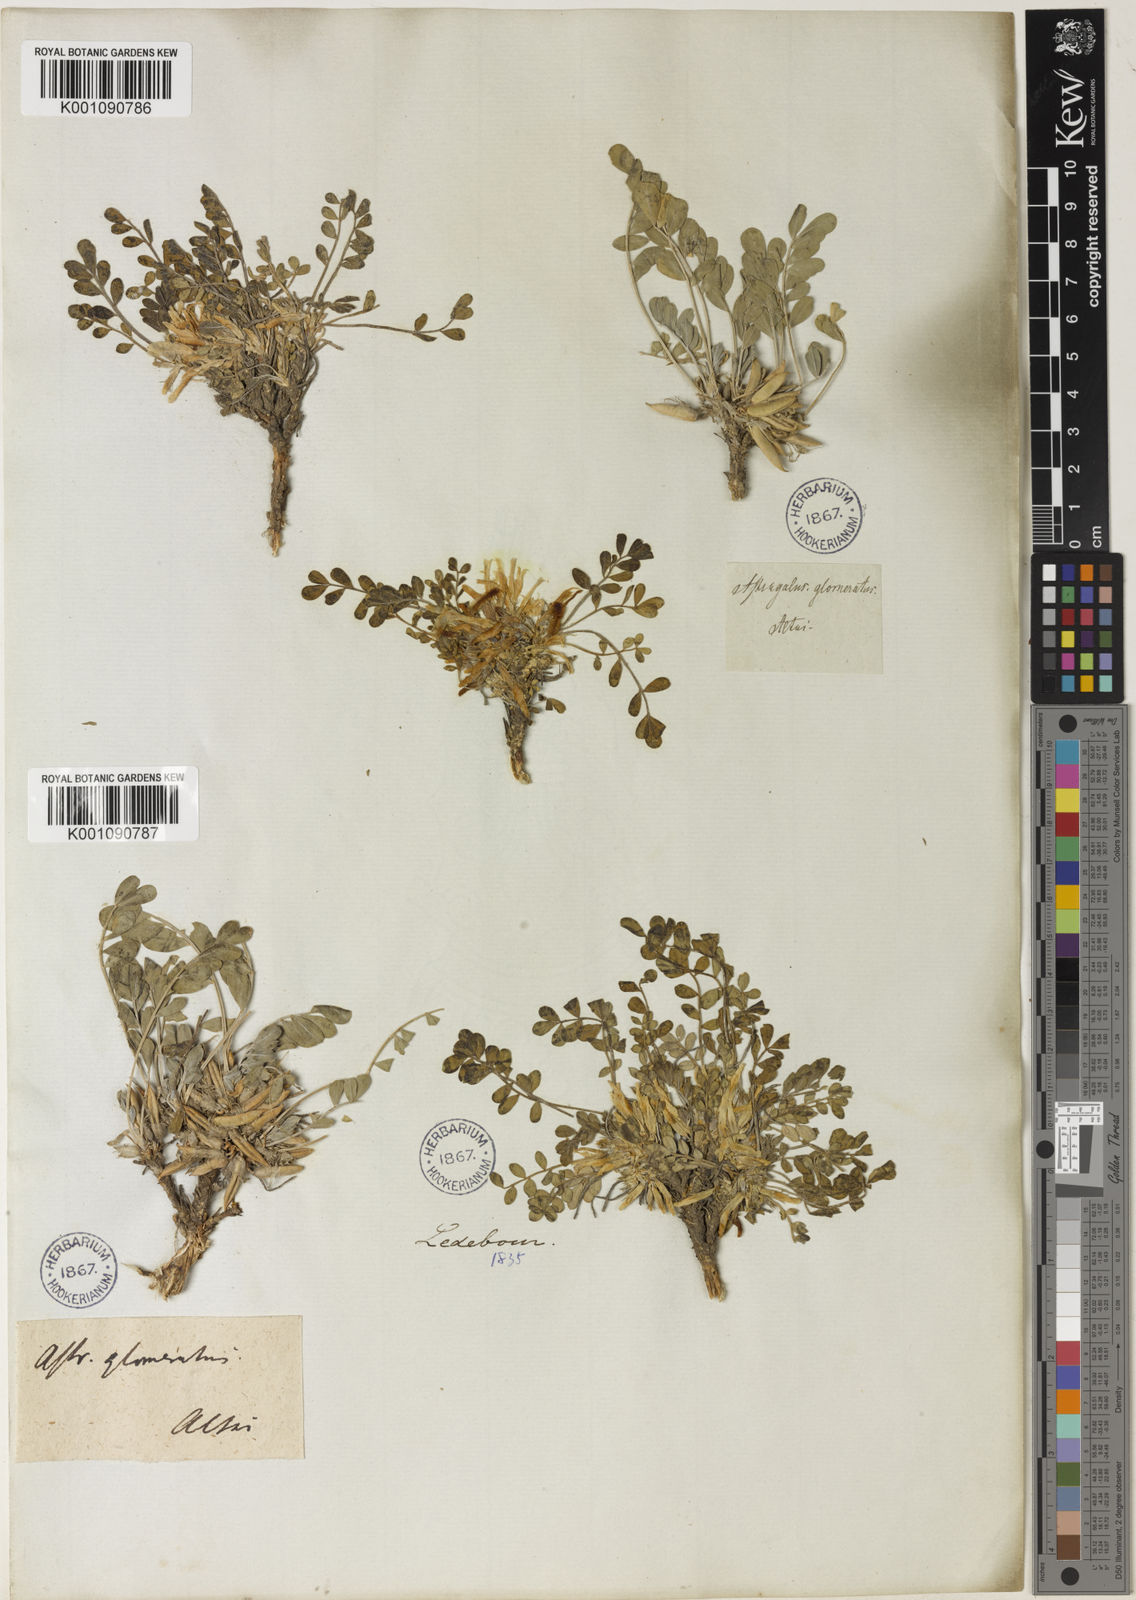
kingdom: Plantae
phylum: Tracheophyta
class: Magnoliopsida
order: Fabales
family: Fabaceae
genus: Astragalus
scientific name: Astragalus
